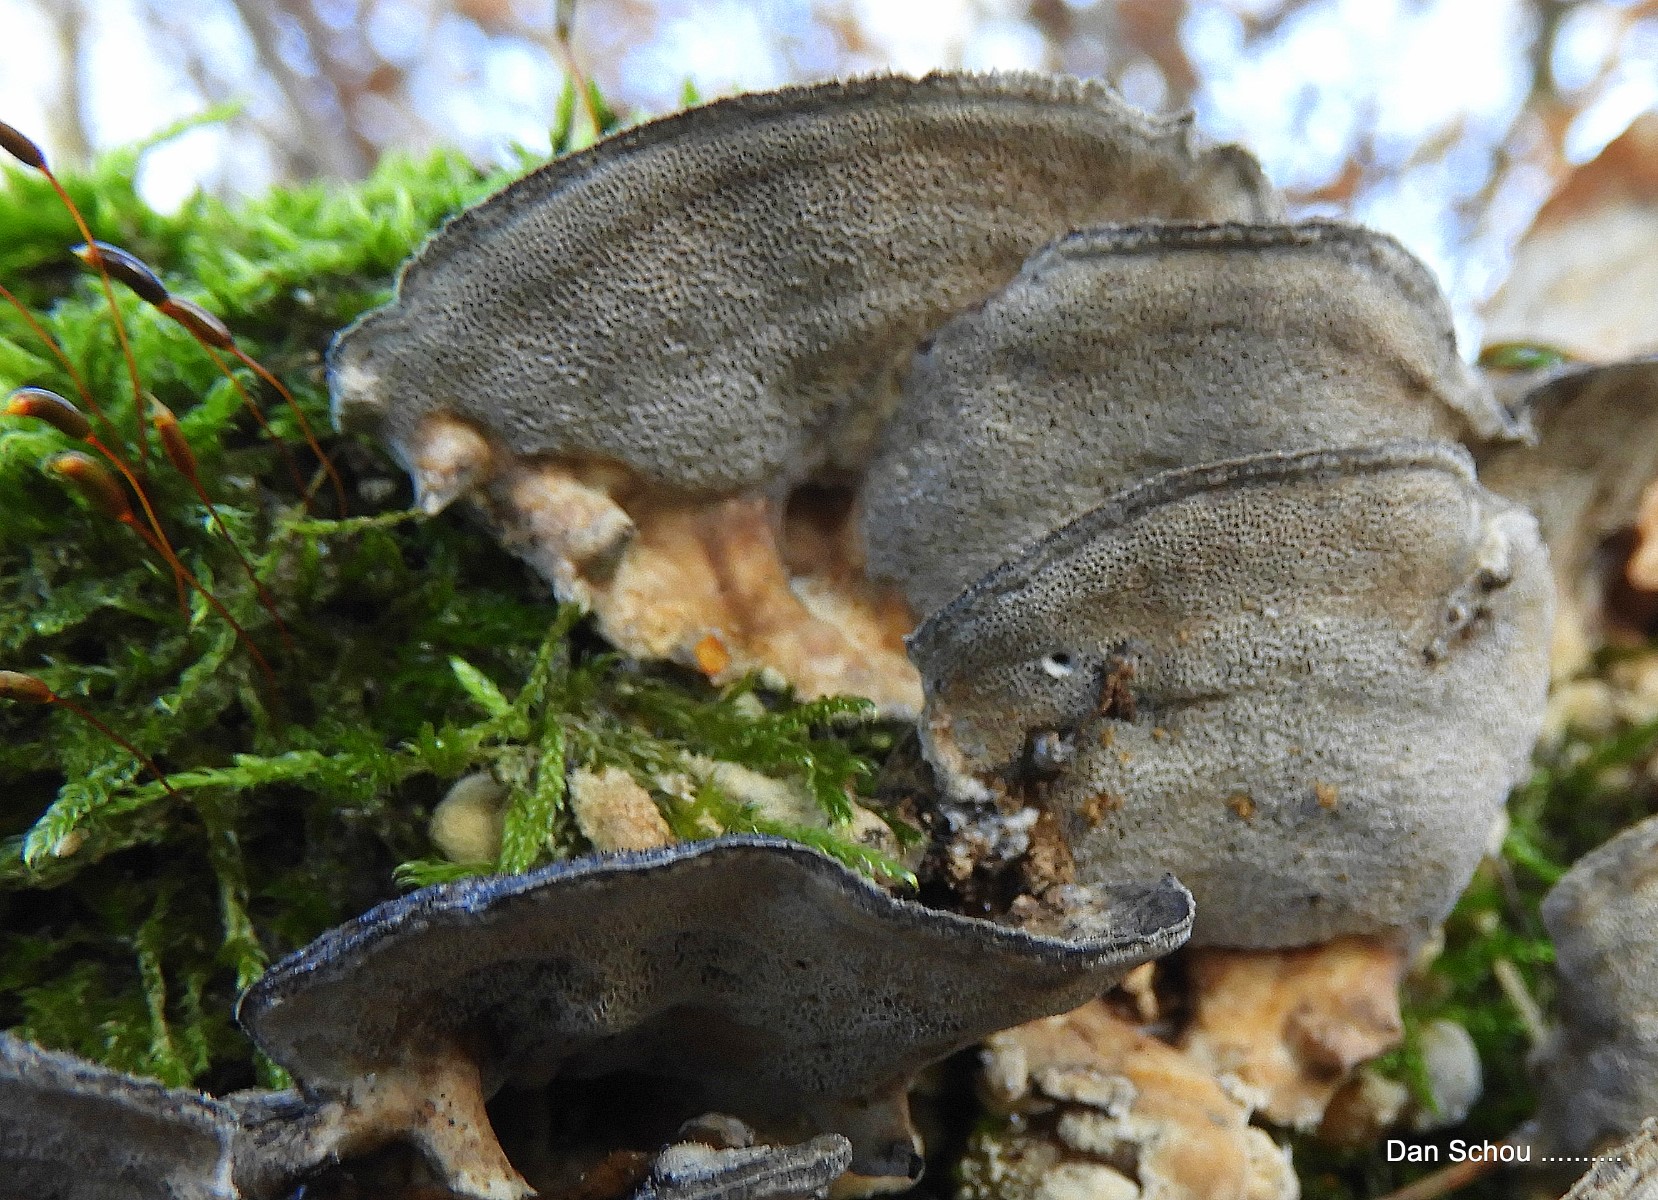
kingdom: Fungi
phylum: Basidiomycota
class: Agaricomycetes
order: Polyporales
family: Polyporaceae
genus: Cyanosporus
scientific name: Cyanosporus alni
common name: blegblå kødporesvamp
